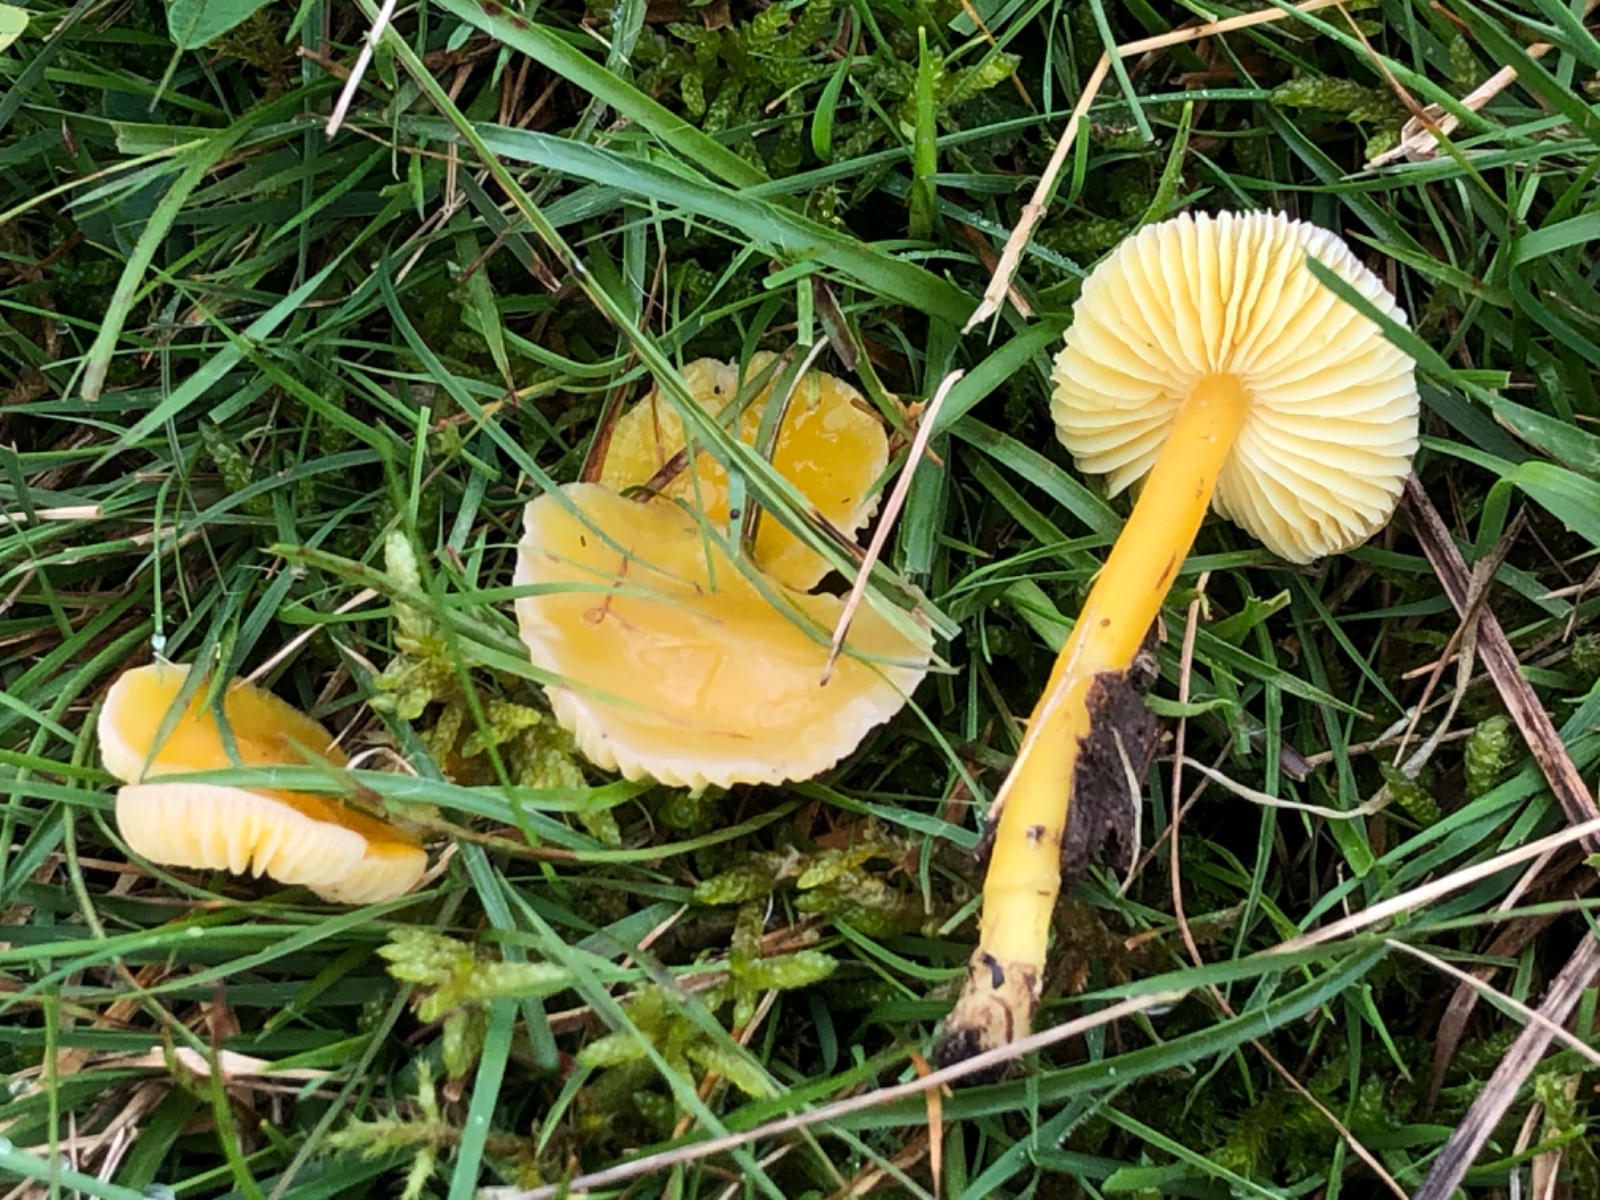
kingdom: Fungi
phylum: Basidiomycota
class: Agaricomycetes
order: Agaricales
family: Hygrophoraceae
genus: Hygrocybe
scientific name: Hygrocybe chlorophana
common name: gul vokshat
